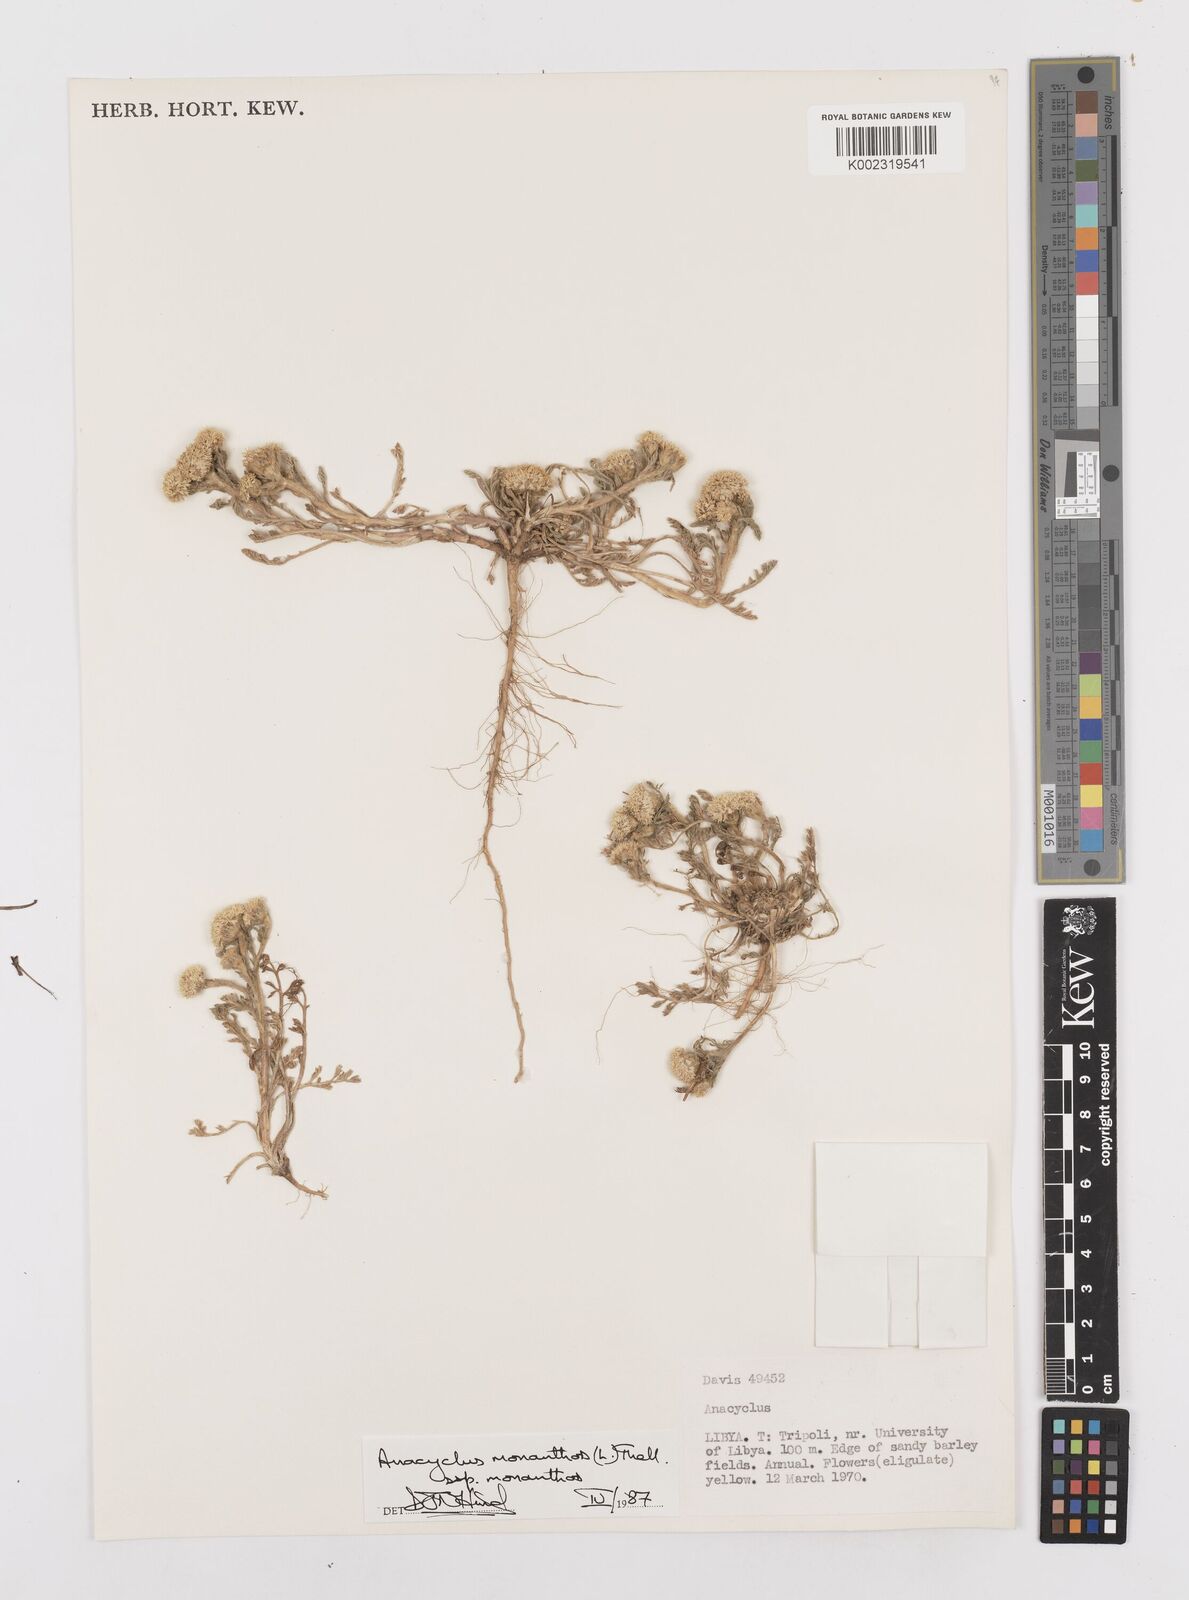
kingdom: Plantae
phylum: Tracheophyta
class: Magnoliopsida
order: Asterales
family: Asteraceae
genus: Anacyclus
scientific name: Anacyclus monanthos
